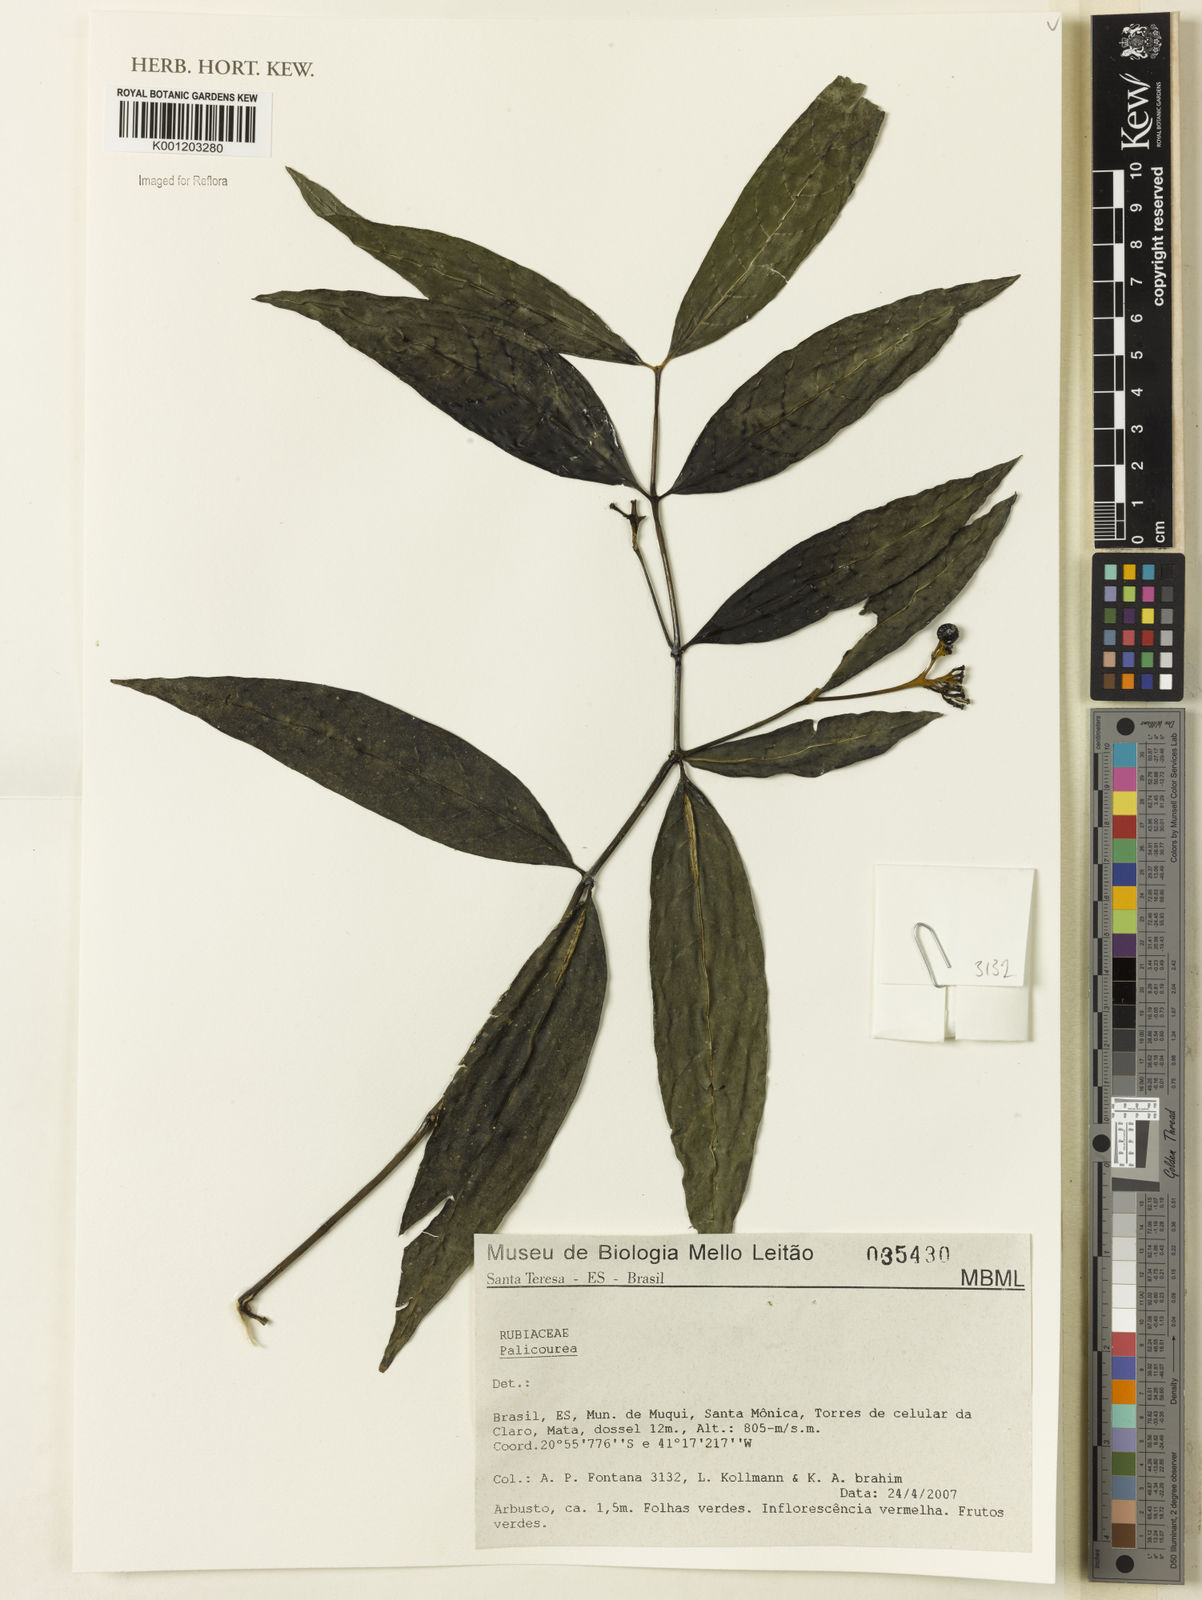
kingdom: Plantae
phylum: Tracheophyta
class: Magnoliopsida
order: Gentianales
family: Rubiaceae
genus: Palicourea
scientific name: Palicourea
